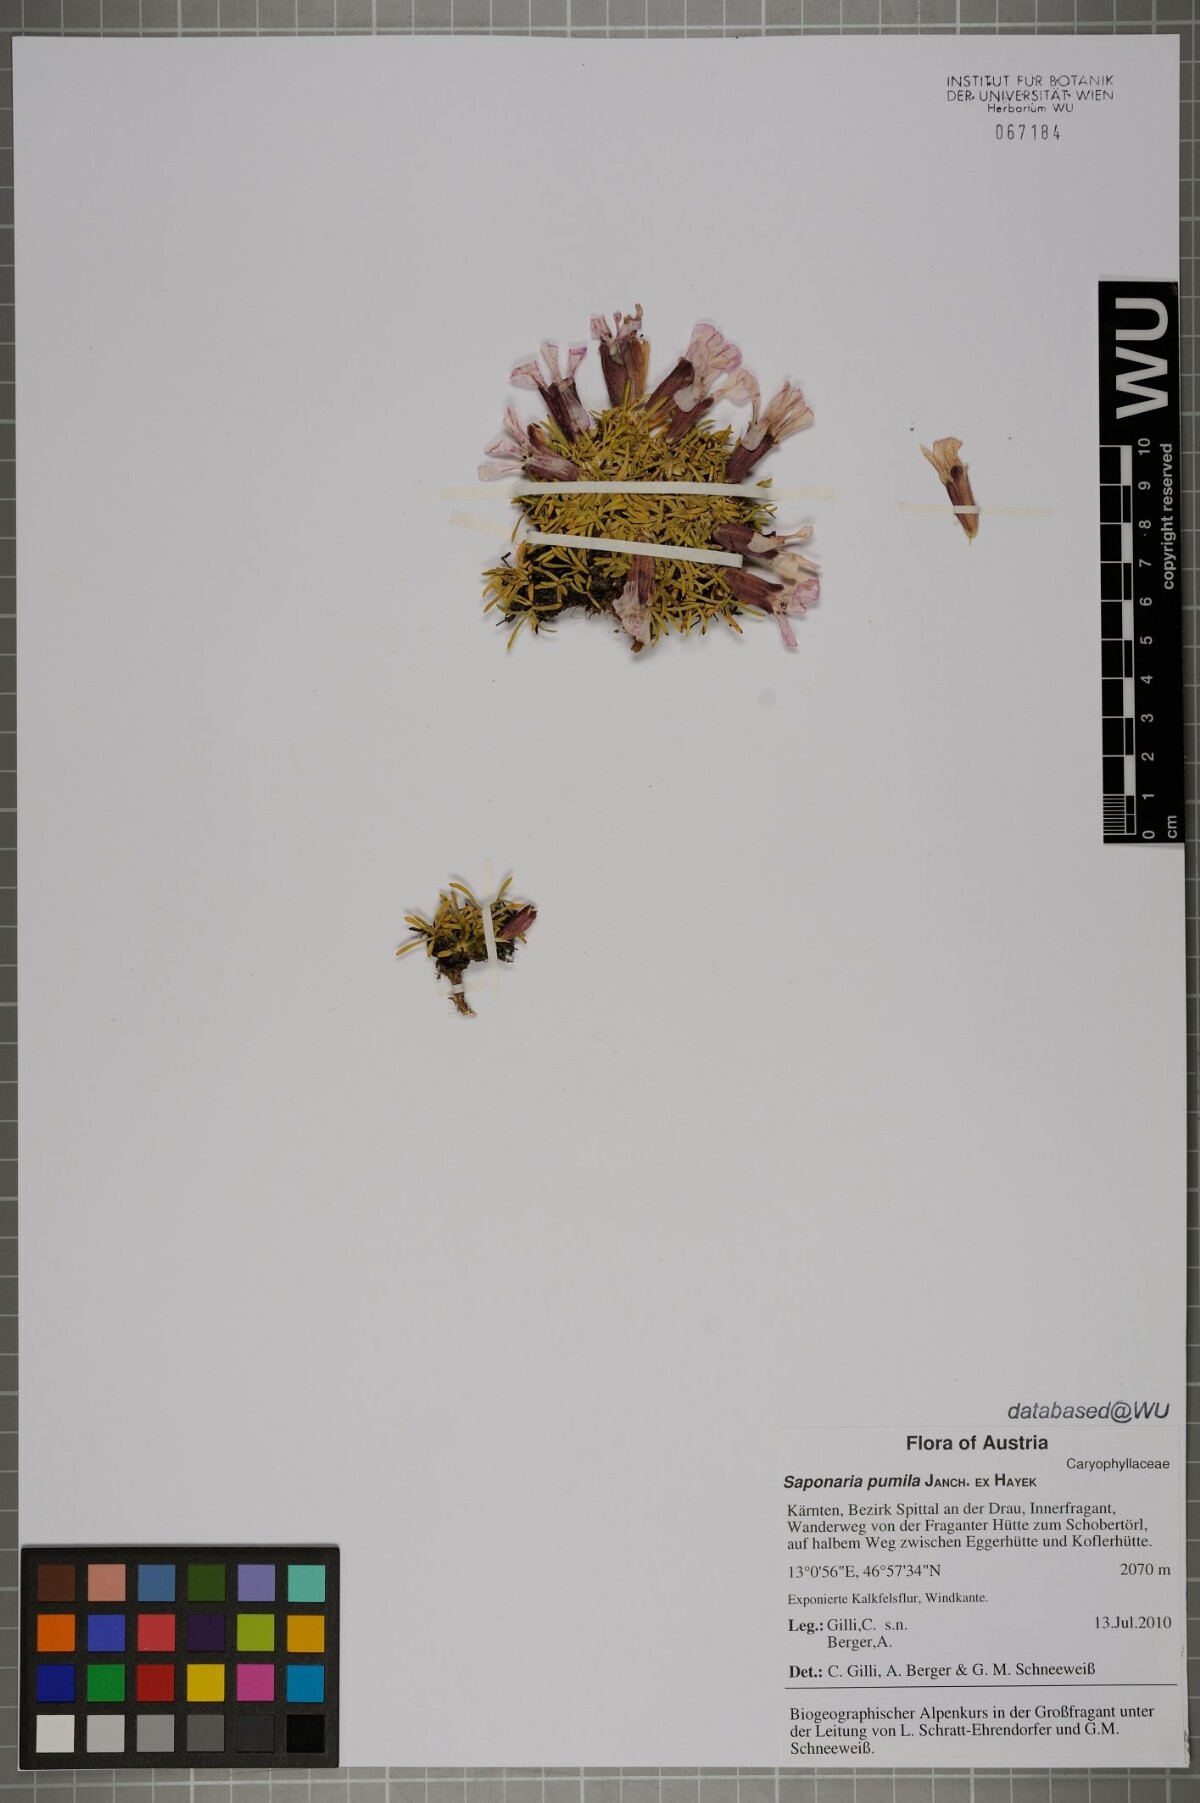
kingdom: Plantae
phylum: Tracheophyta
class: Magnoliopsida
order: Caryophyllales
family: Caryophyllaceae
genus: Saponaria
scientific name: Saponaria pumila
